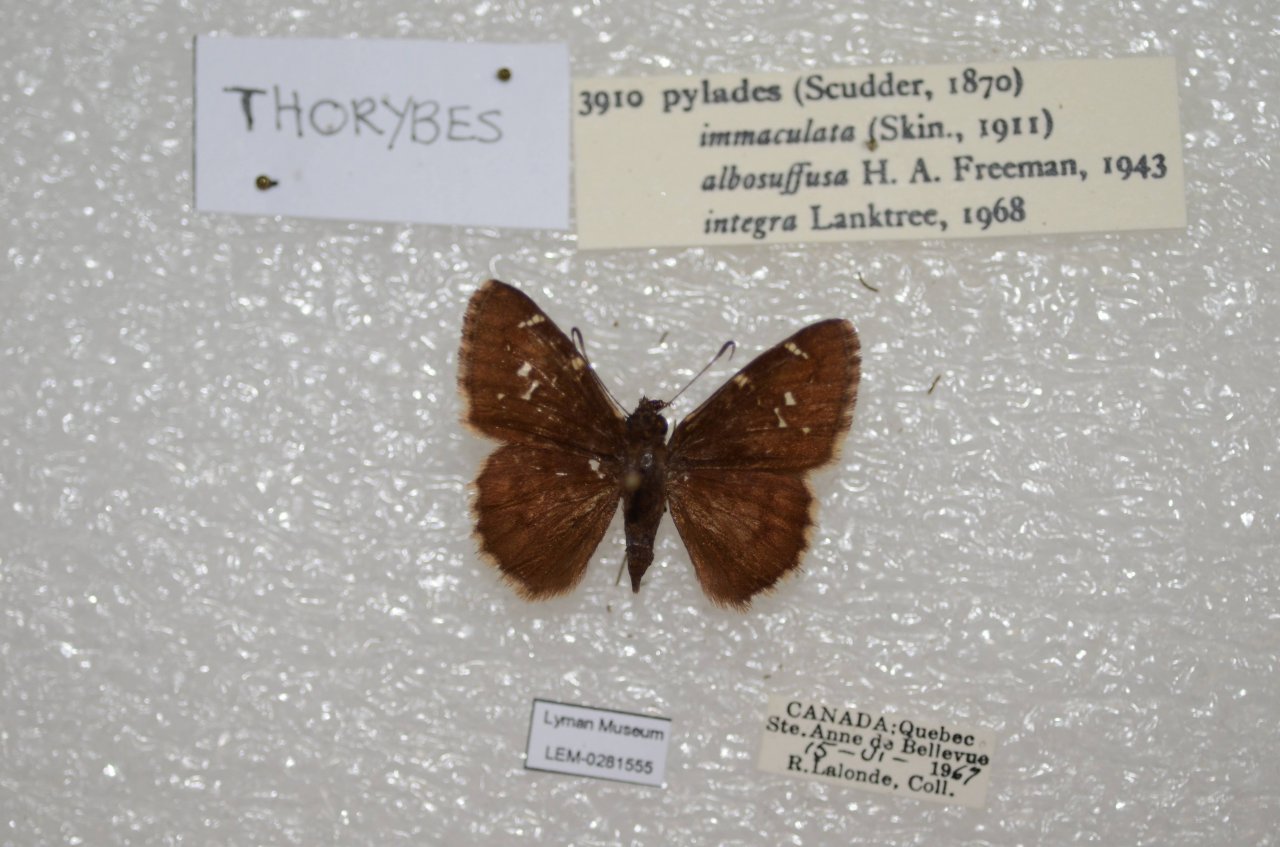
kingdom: Animalia
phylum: Arthropoda
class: Insecta
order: Lepidoptera
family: Hesperiidae
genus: Autochton
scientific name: Autochton
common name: Northern Cloudywing
